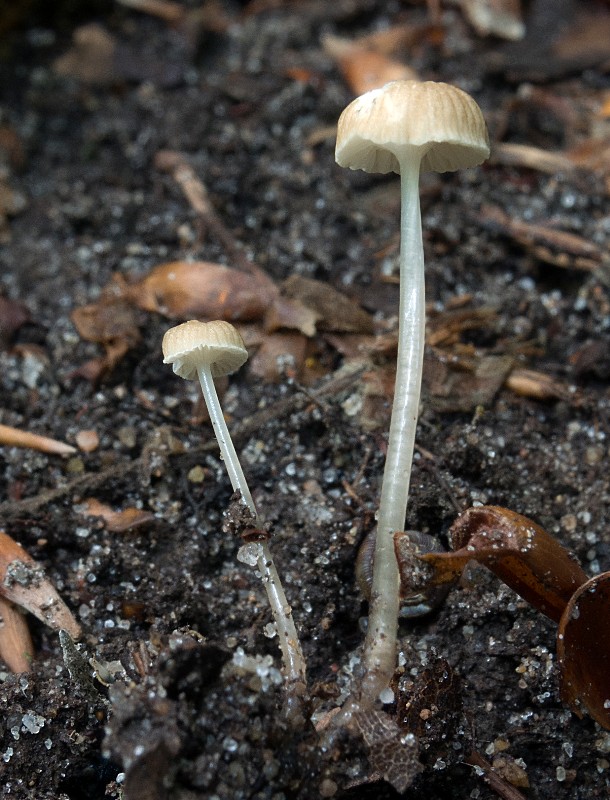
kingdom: Fungi
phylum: Basidiomycota
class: Agaricomycetes
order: Agaricales
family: Mycenaceae
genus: Roridomyces
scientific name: Roridomyces roridus
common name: slimfod
